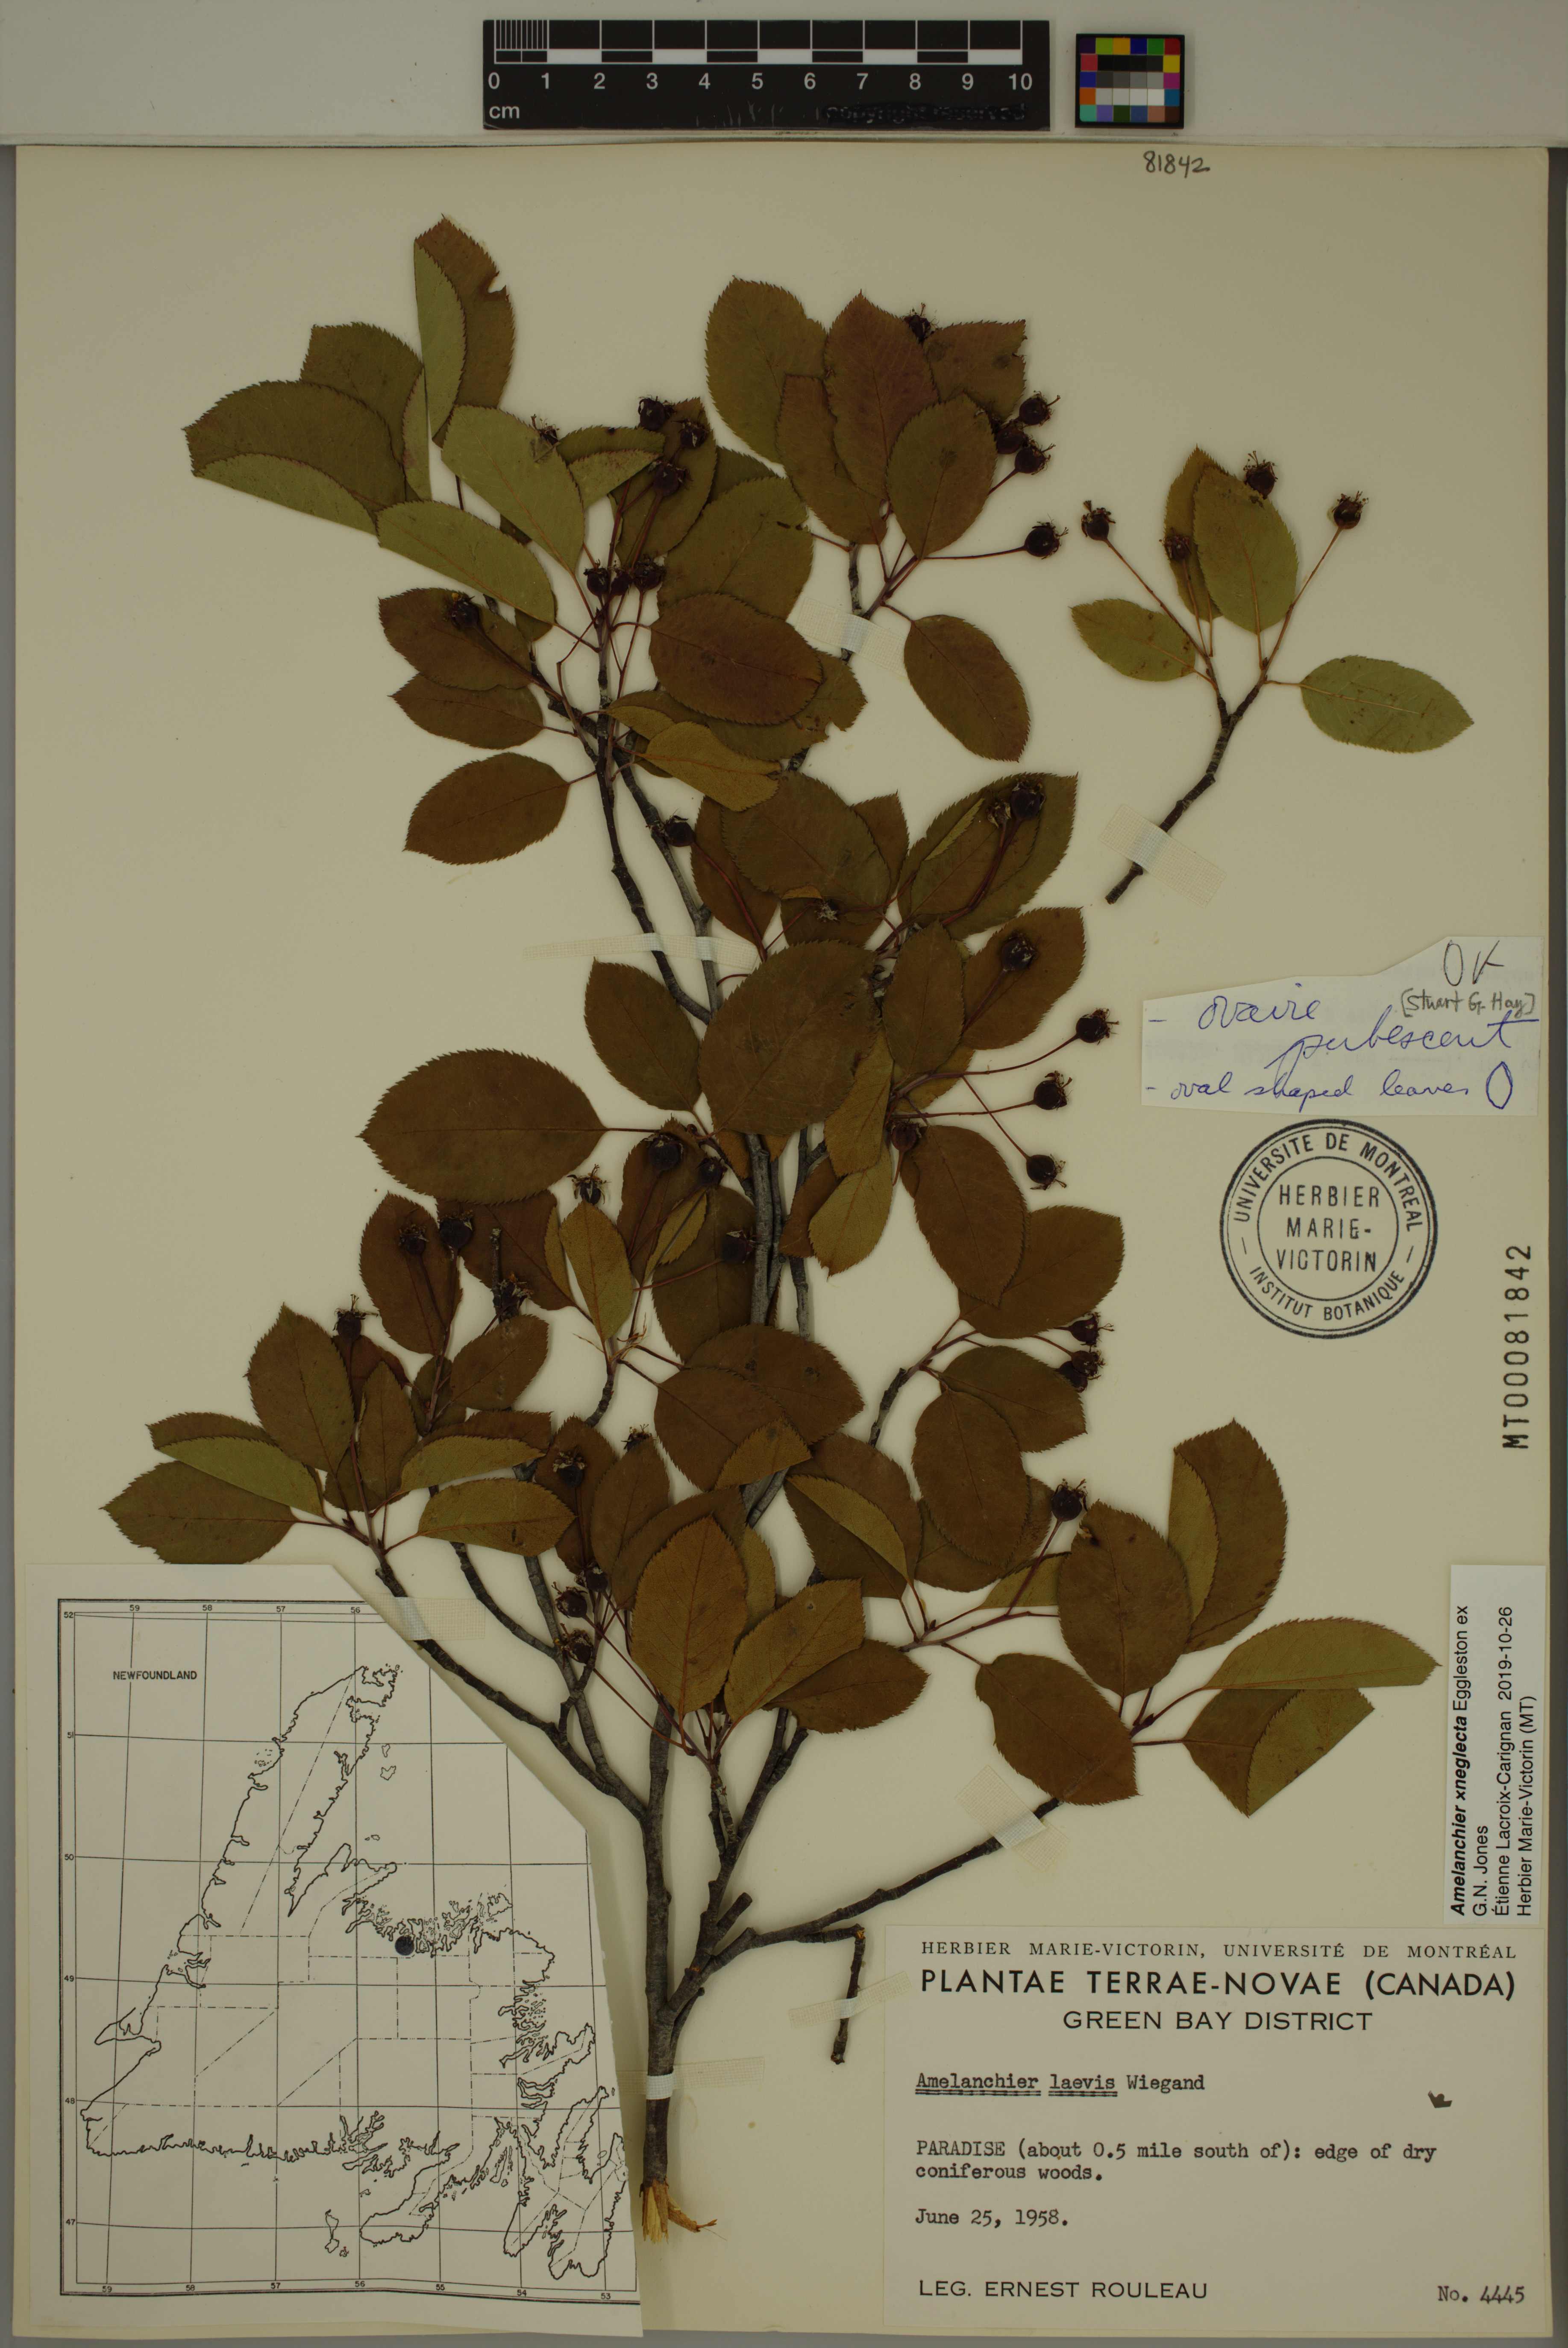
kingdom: Plantae
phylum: Tracheophyta
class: Magnoliopsida
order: Rosales
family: Rosaceae
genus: Amelanchier
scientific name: Amelanchier neglecta
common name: Overlooked serviceberry
